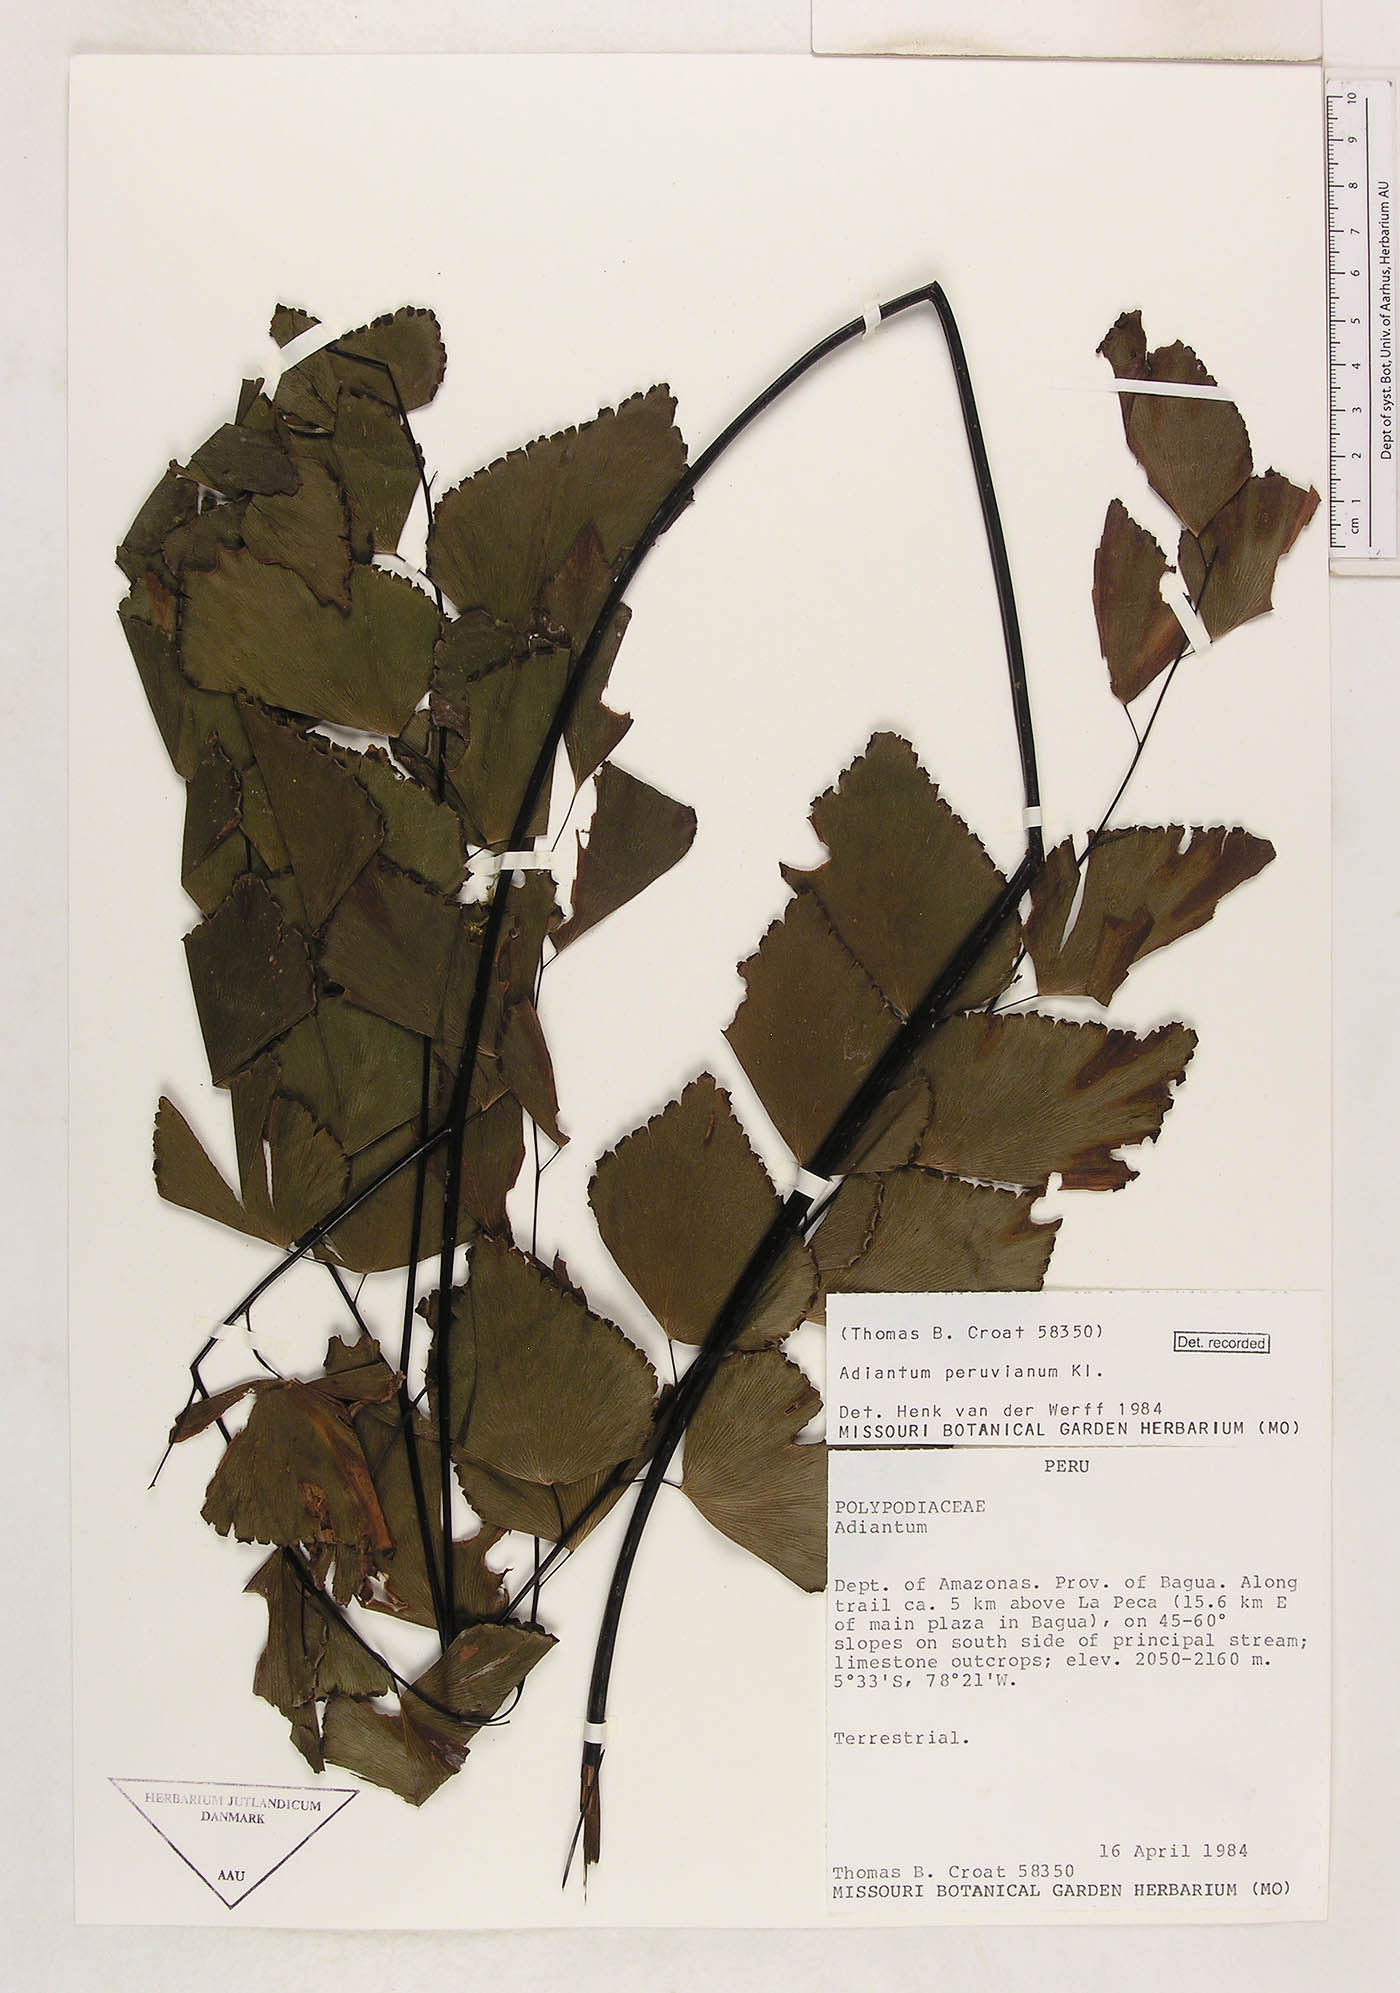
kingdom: Plantae
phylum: Tracheophyta
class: Polypodiopsida
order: Polypodiales
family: Pteridaceae
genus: Adiantum
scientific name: Adiantum peruvianum
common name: Silver-dollar maidenhair fern
